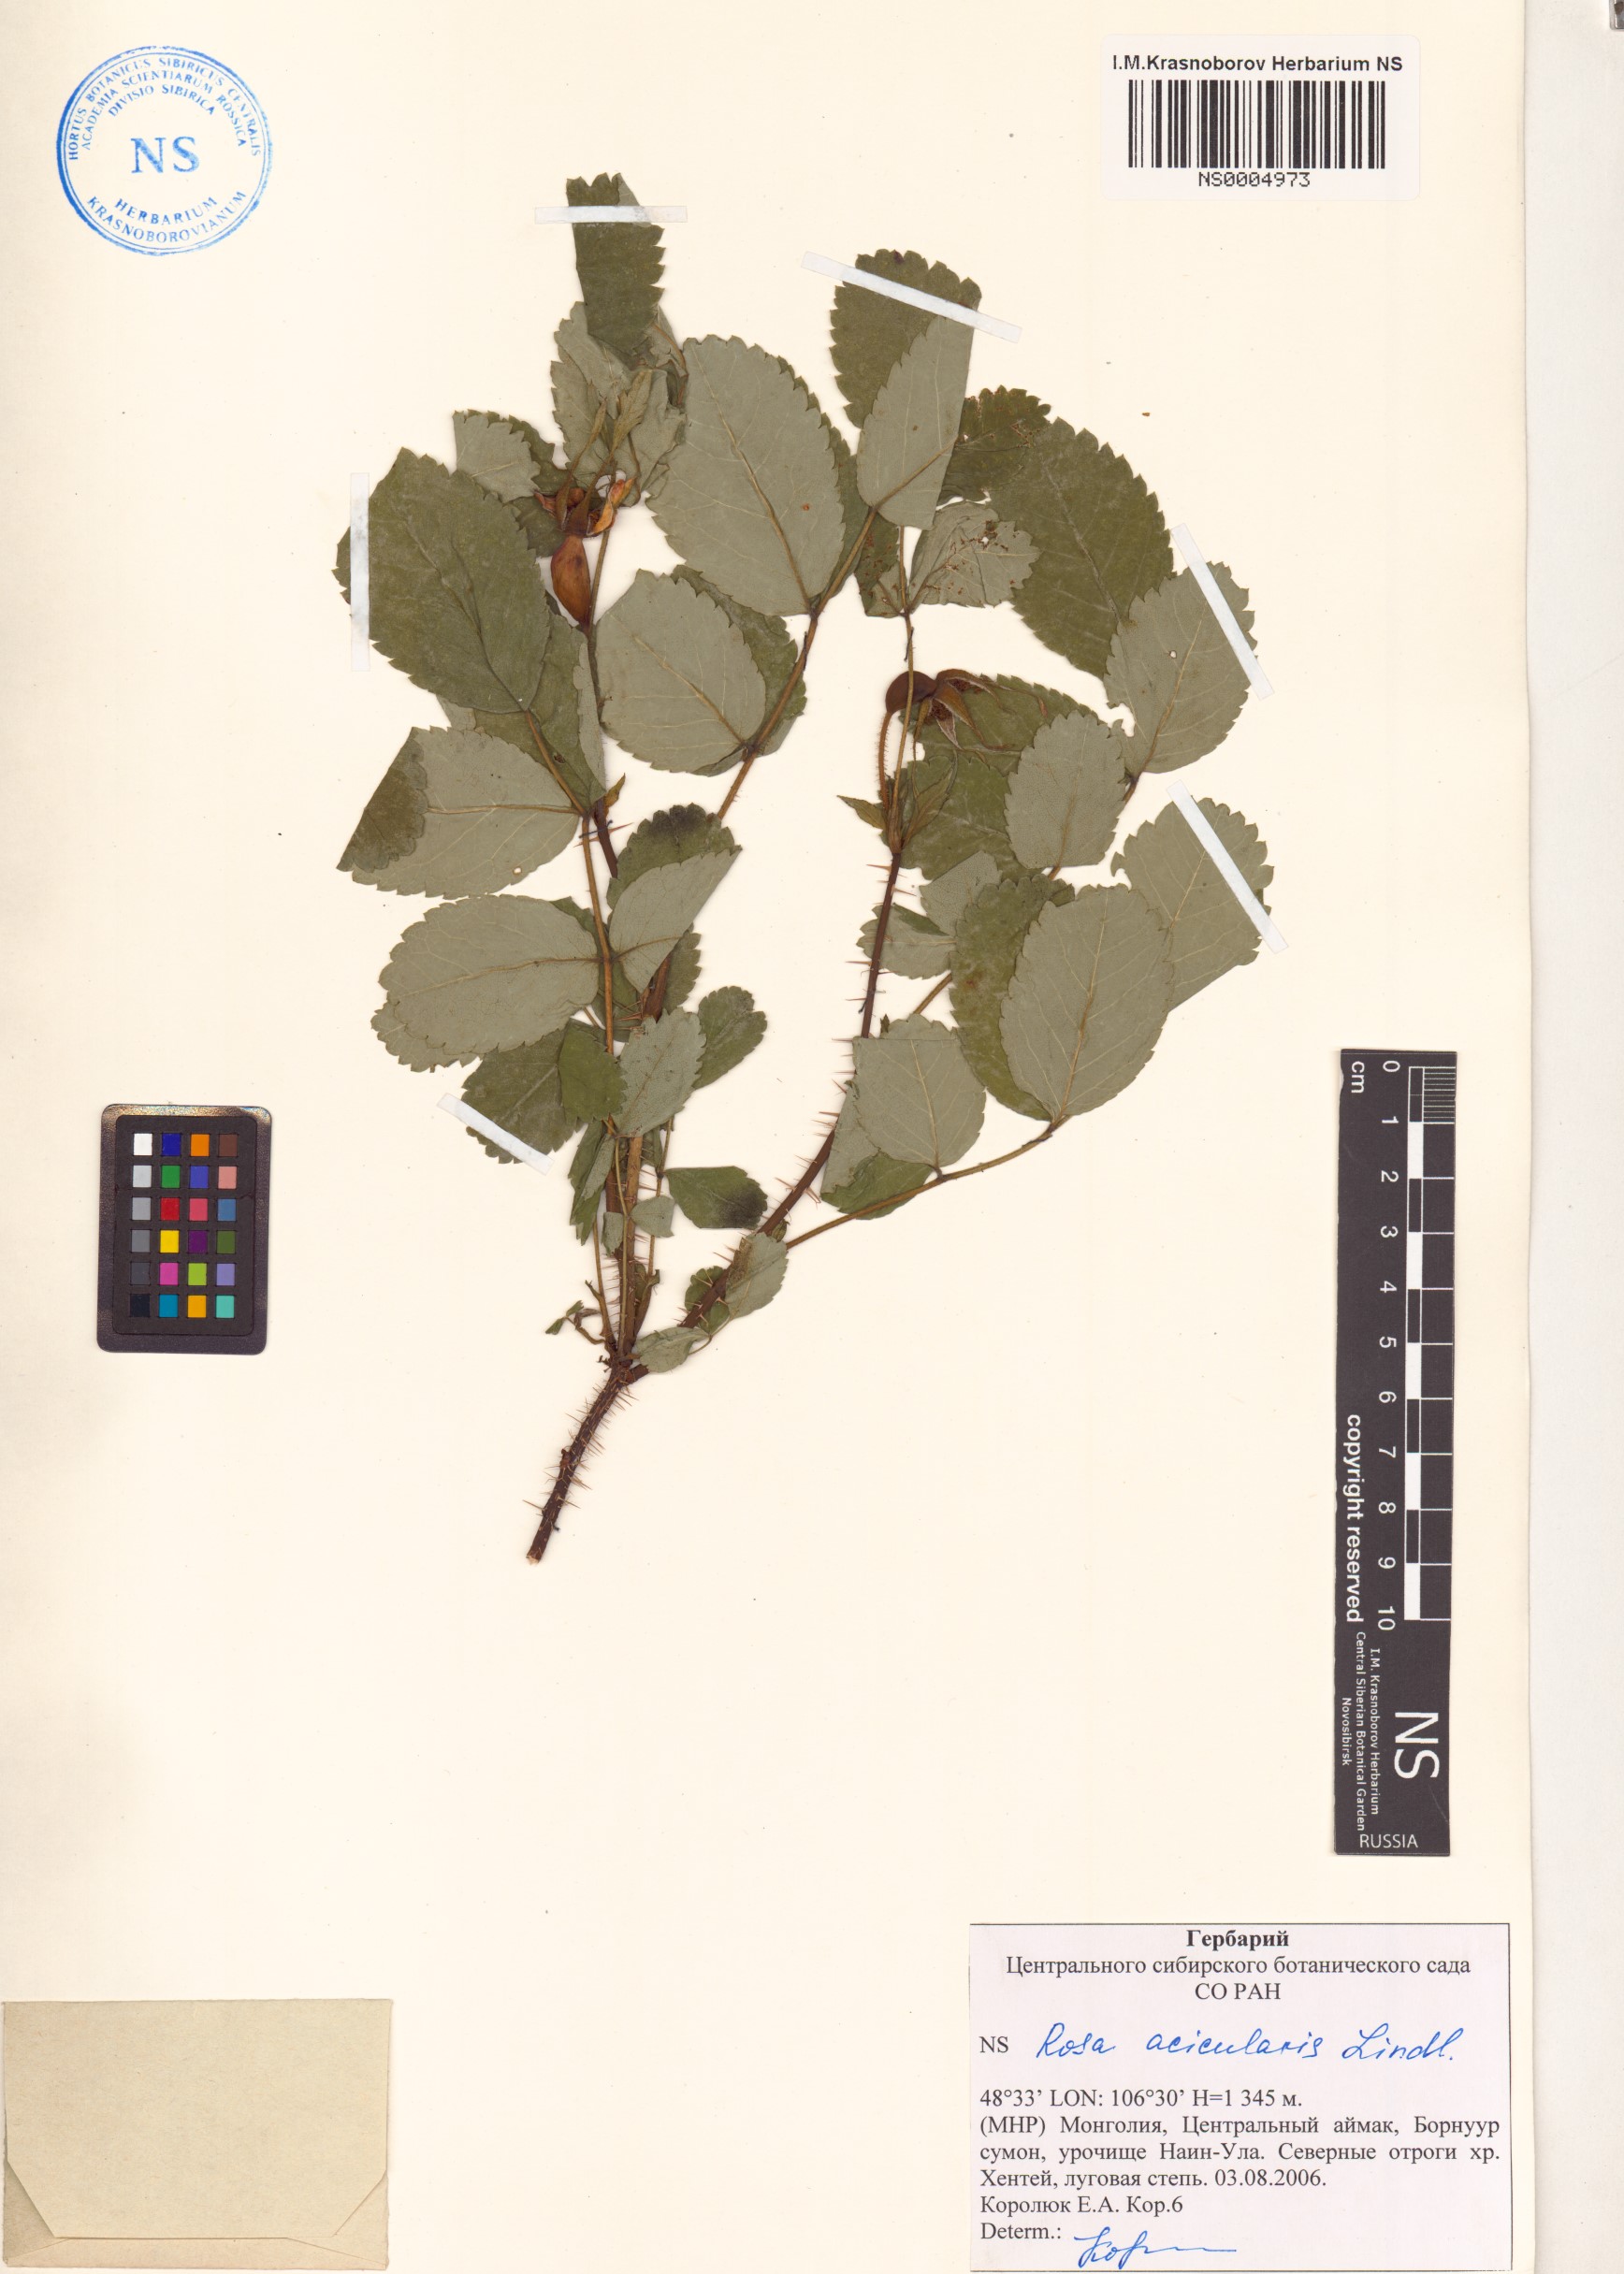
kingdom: Plantae
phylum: Tracheophyta
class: Magnoliopsida
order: Rosales
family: Rosaceae
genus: Rosa
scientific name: Rosa acicularis
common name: Prickly rose
